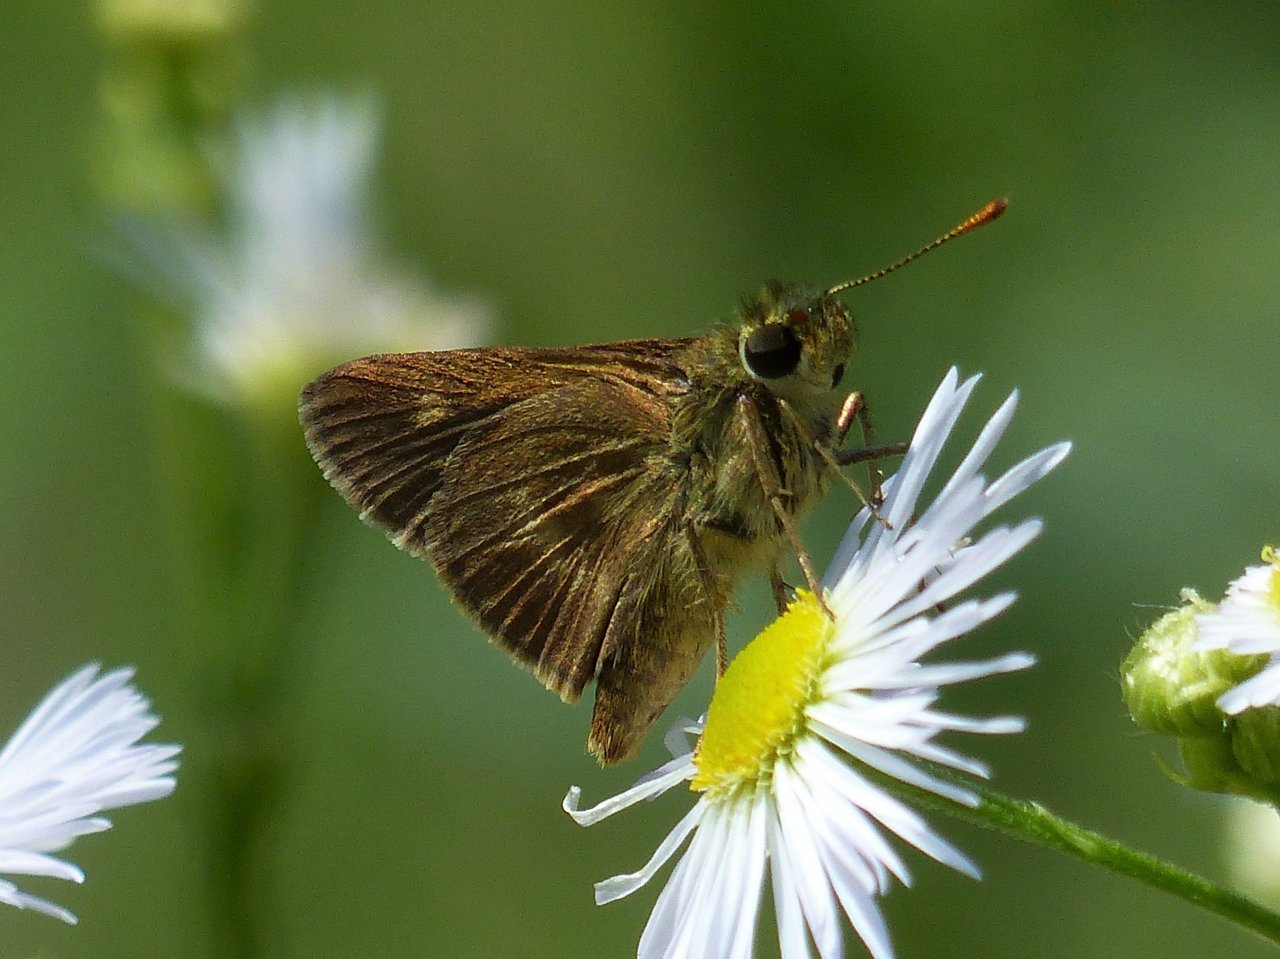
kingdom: Animalia
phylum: Arthropoda
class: Insecta
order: Lepidoptera
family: Hesperiidae
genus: Polites
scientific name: Polites egeremet
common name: Northern Broken-Dash
